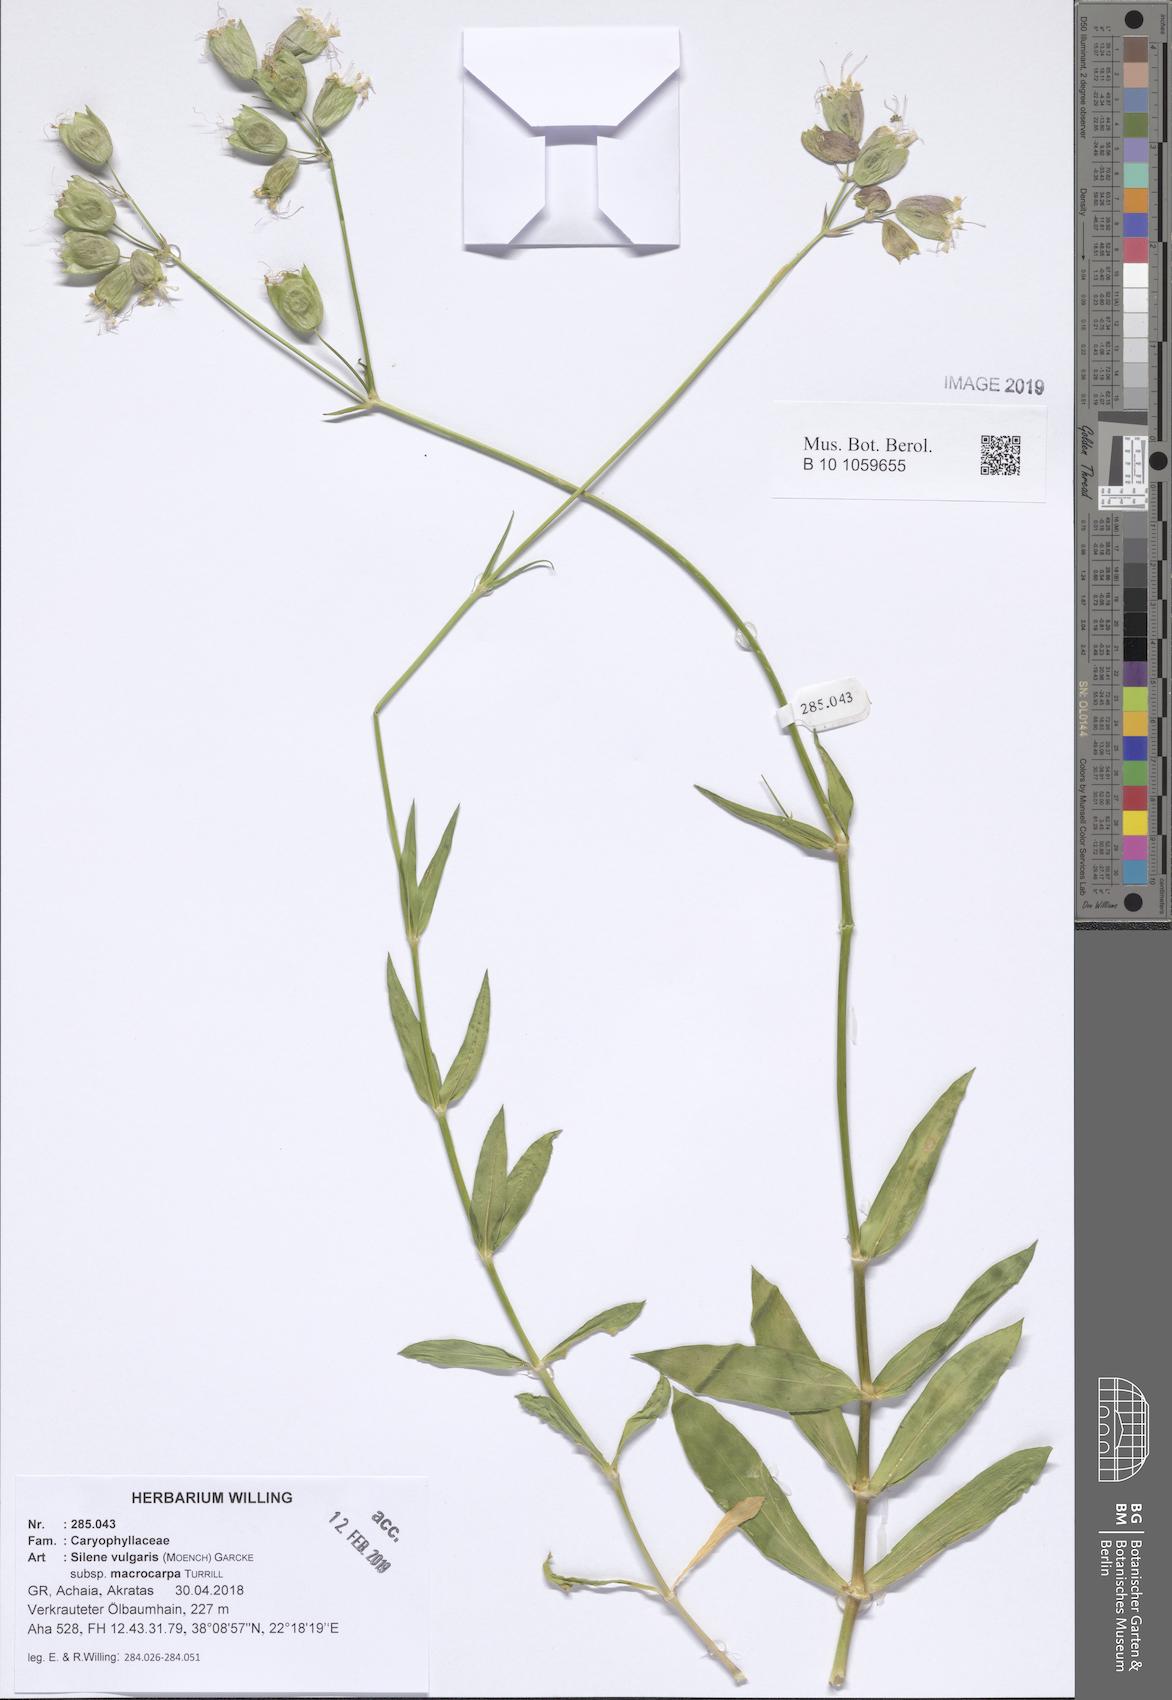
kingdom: Plantae
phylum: Tracheophyta
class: Magnoliopsida
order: Caryophyllales
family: Caryophyllaceae
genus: Silene
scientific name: Silene vulgaris
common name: Bladder campion
